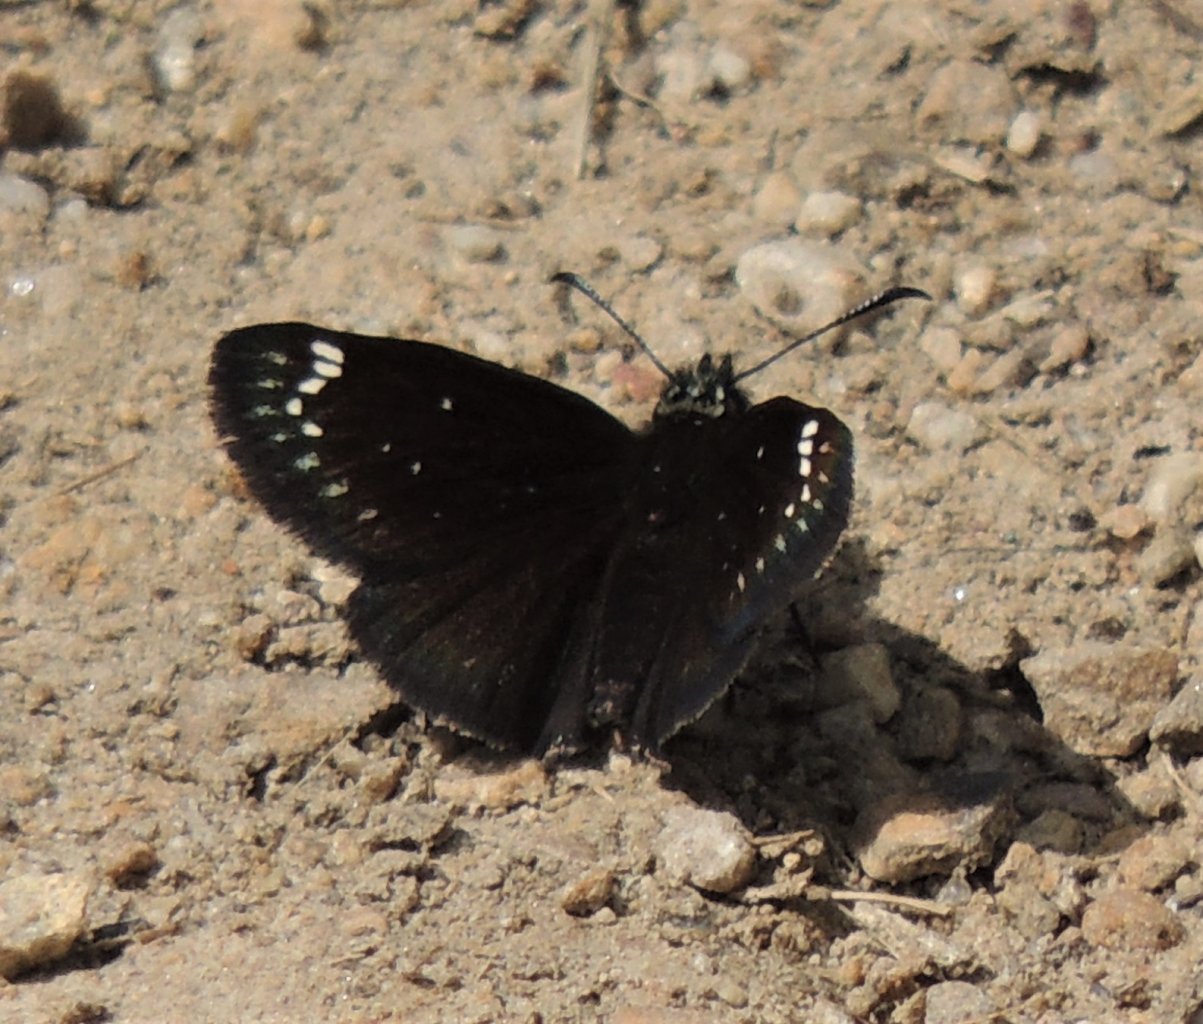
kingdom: Animalia
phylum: Arthropoda
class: Insecta
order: Lepidoptera
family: Hesperiidae
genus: Pholisora
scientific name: Pholisora catullus
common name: Common Sootywing
